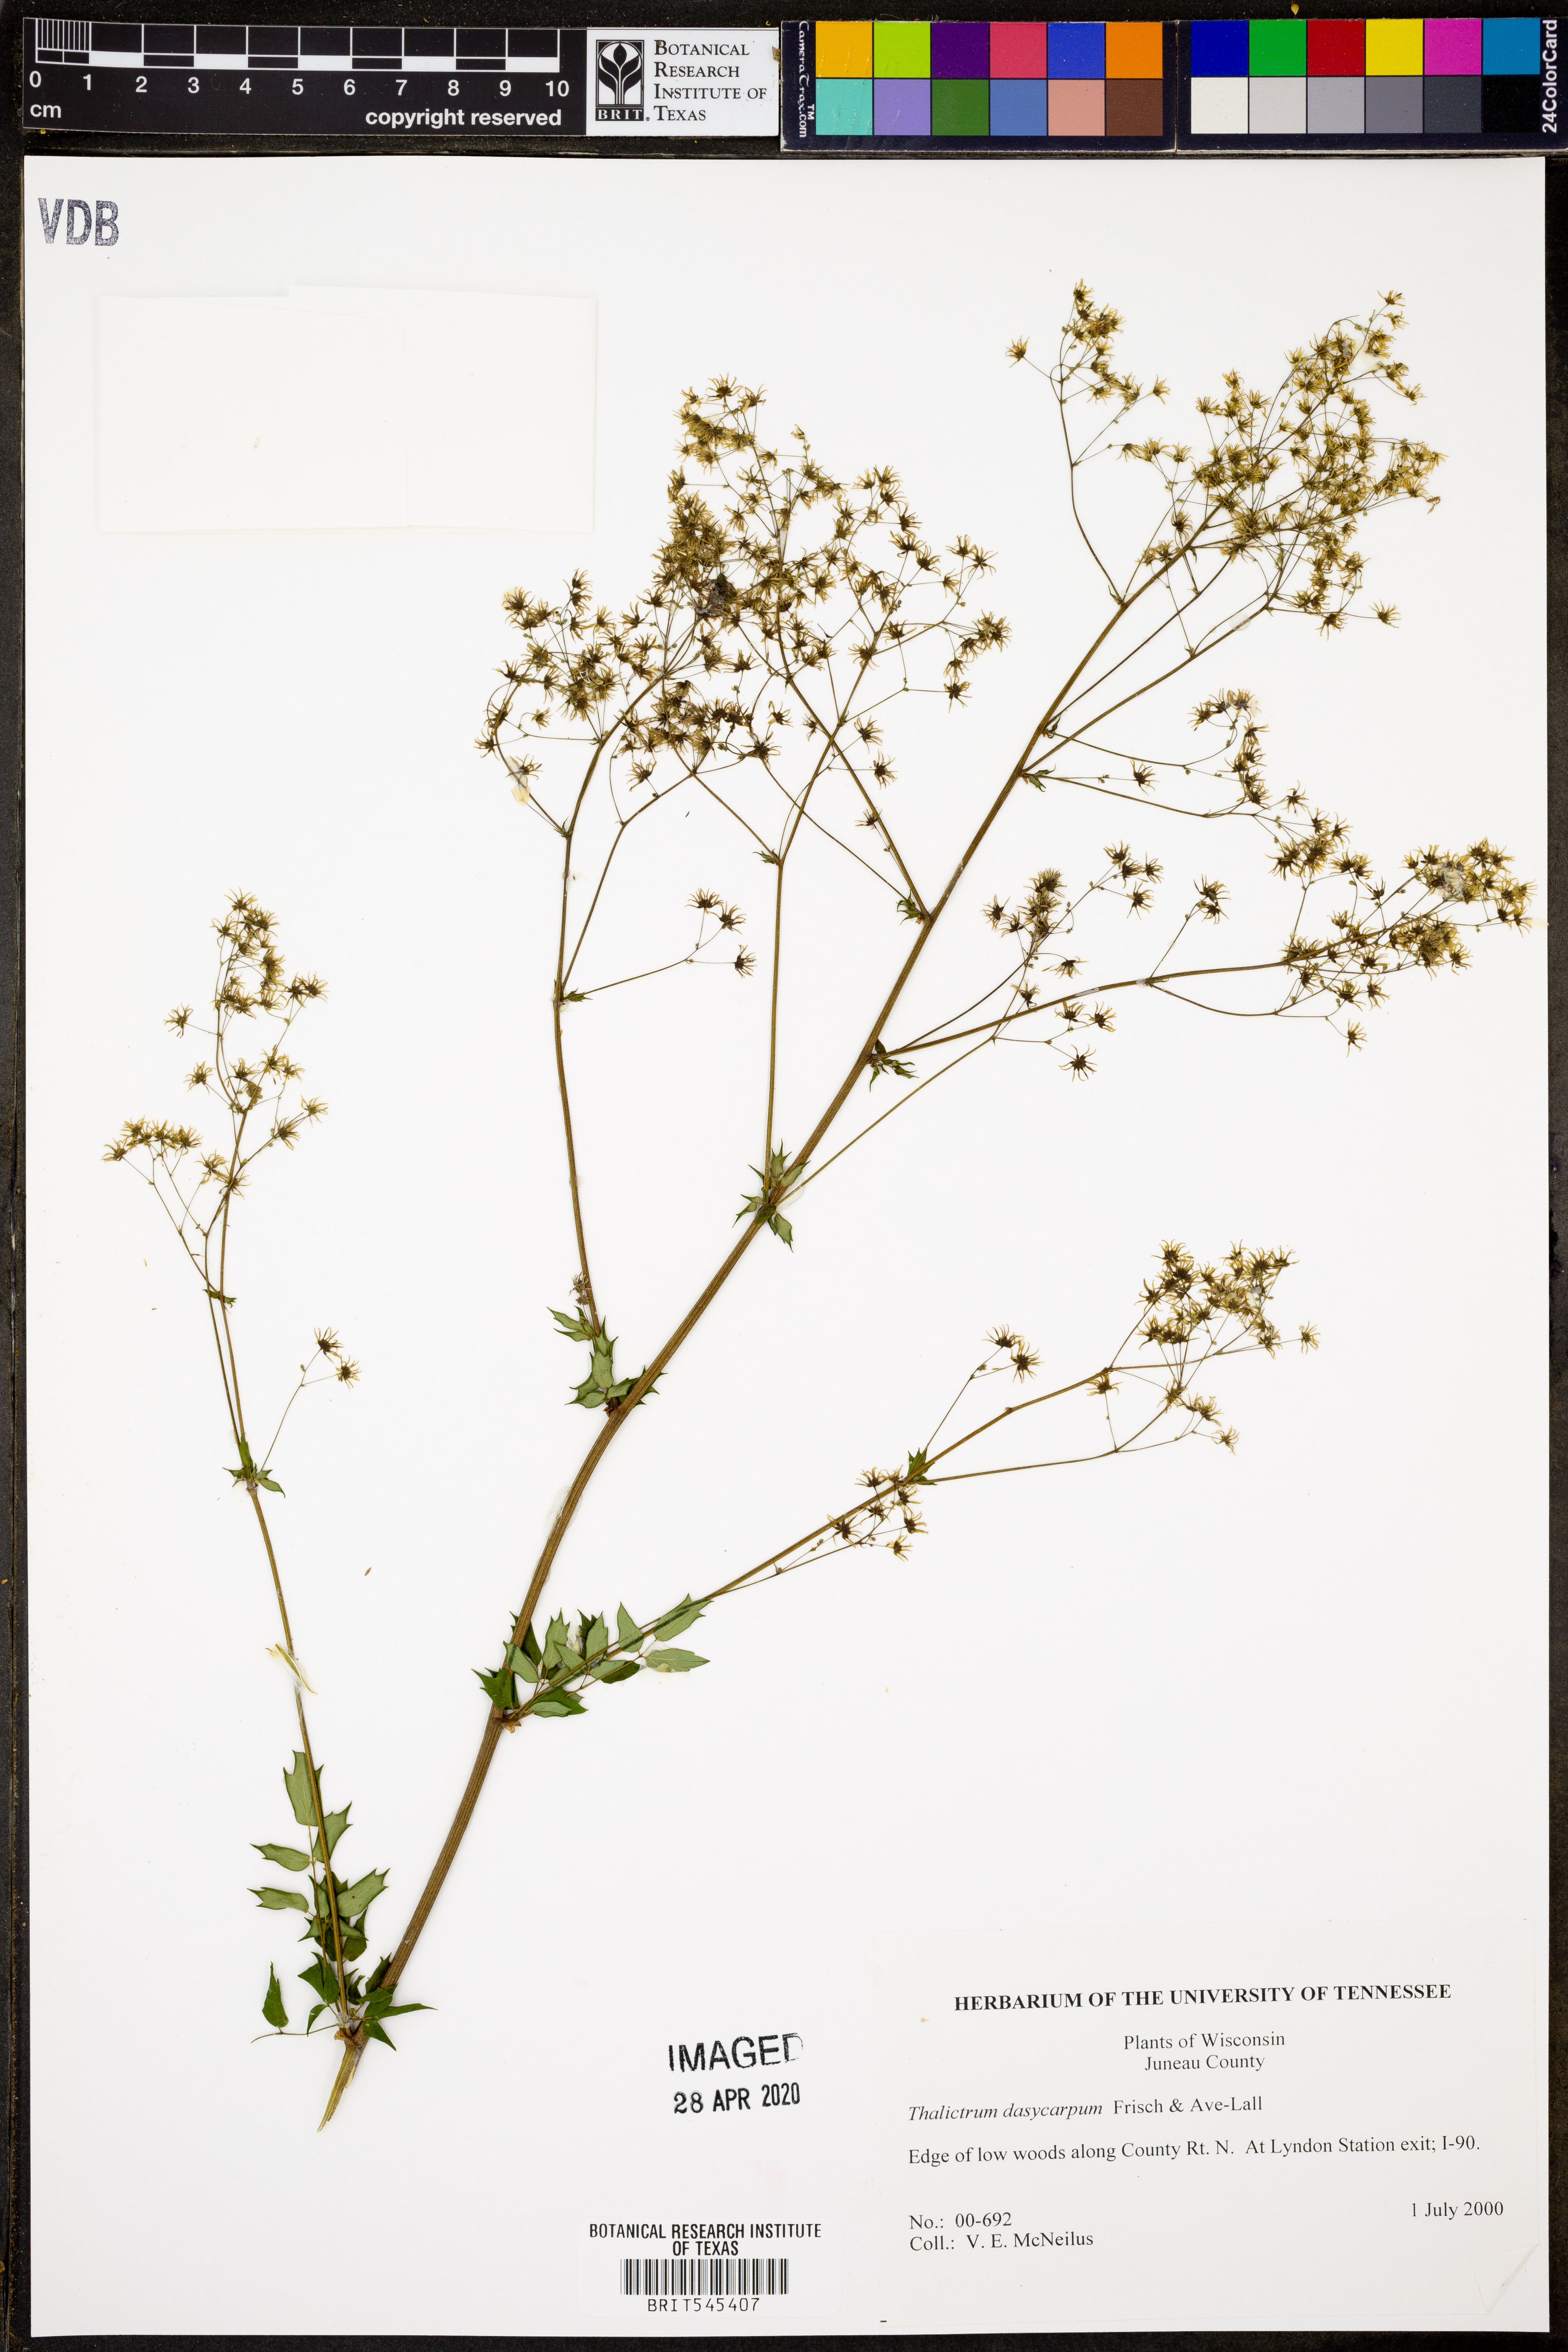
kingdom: Plantae
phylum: Tracheophyta
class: Magnoliopsida
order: Ranunculales
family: Ranunculaceae
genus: Thalictrum
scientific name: Thalictrum dasycarpum
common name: Purple meadow-rue
